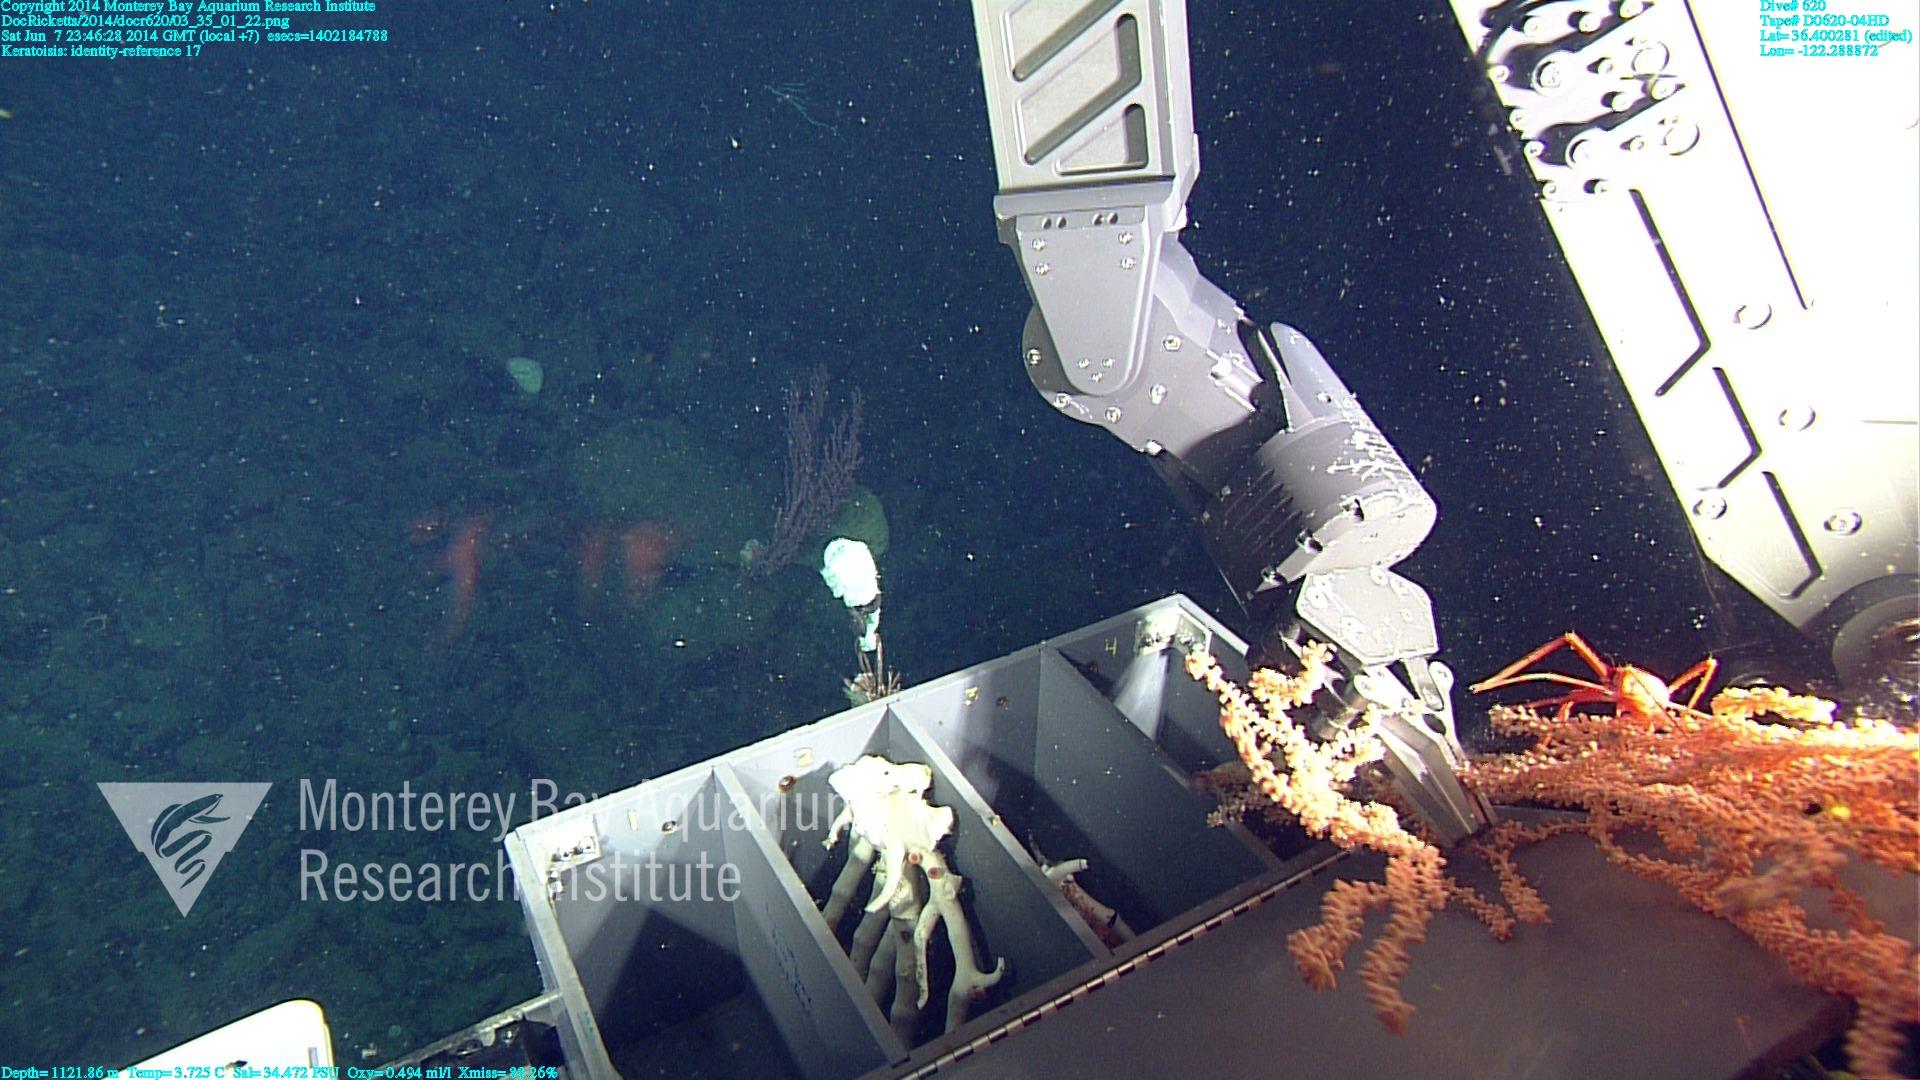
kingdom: Animalia
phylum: Cnidaria
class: Anthozoa
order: Scleralcyonacea
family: Keratoisididae
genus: Keratoisis
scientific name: Keratoisis
